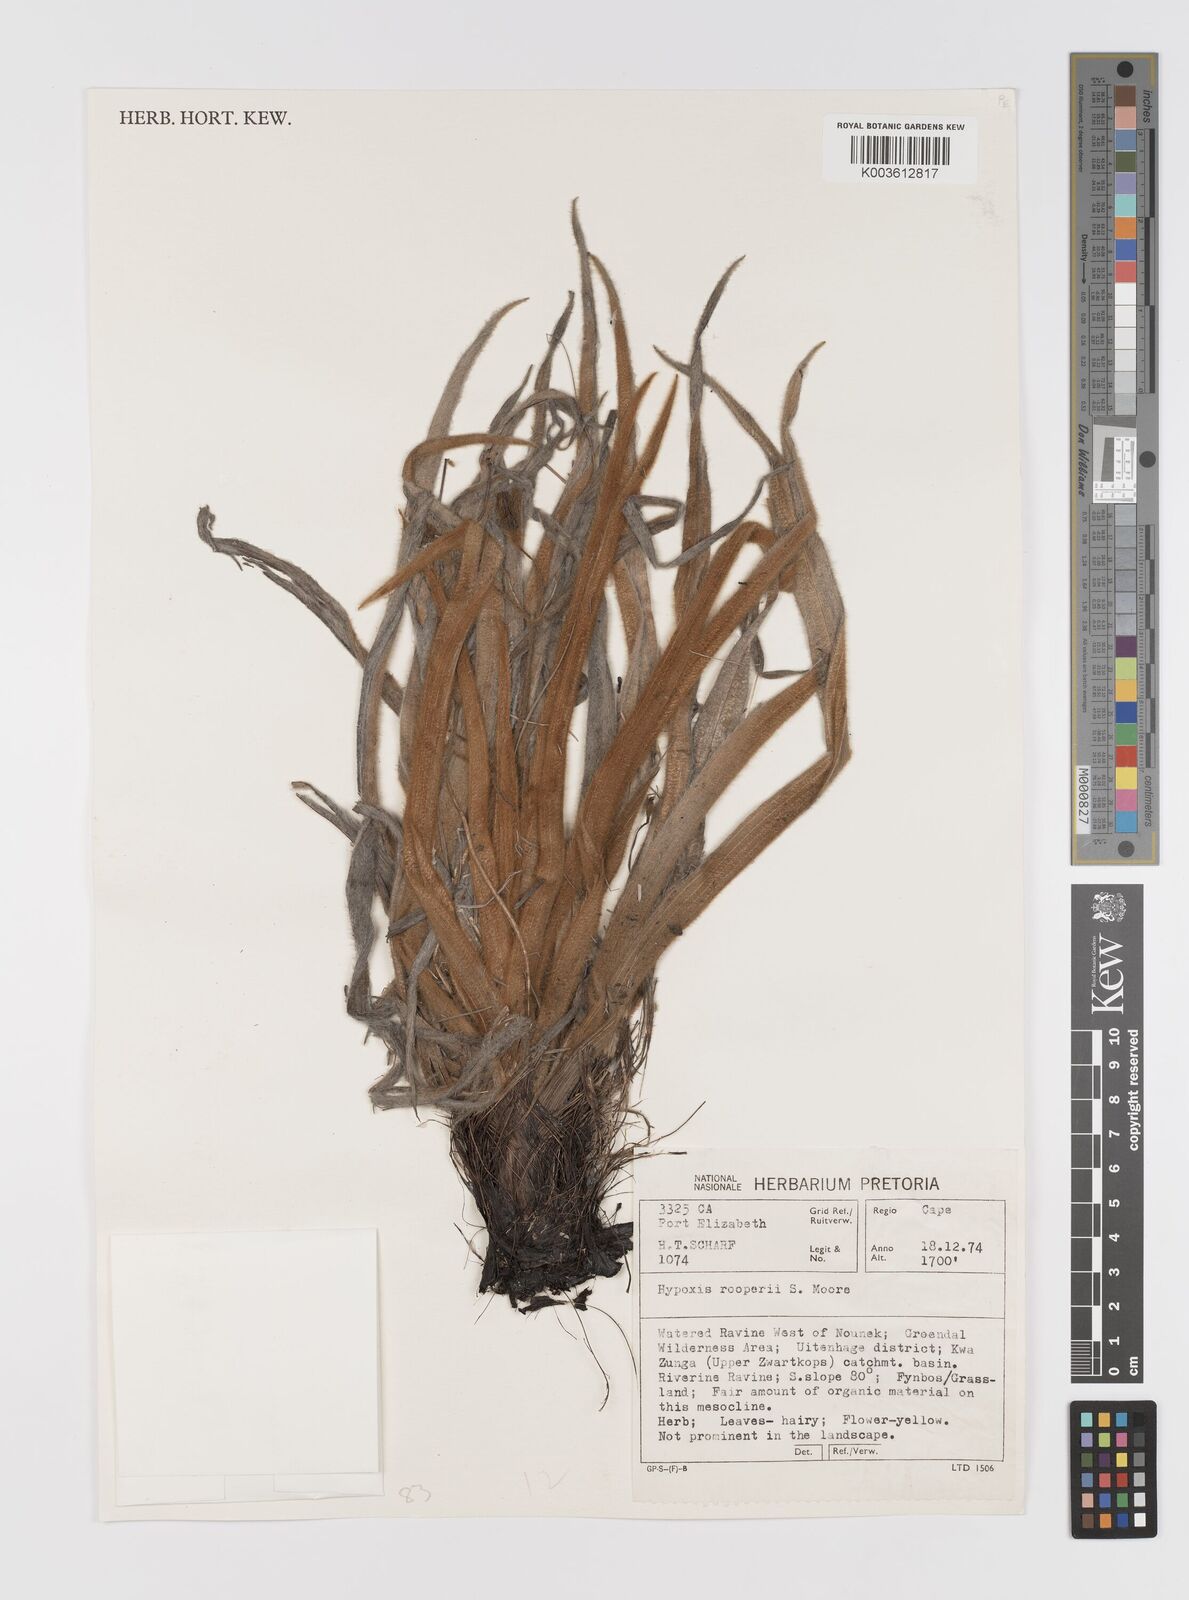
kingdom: Plantae
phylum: Tracheophyta
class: Liliopsida
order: Asparagales
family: Hypoxidaceae
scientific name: Hypoxidaceae
